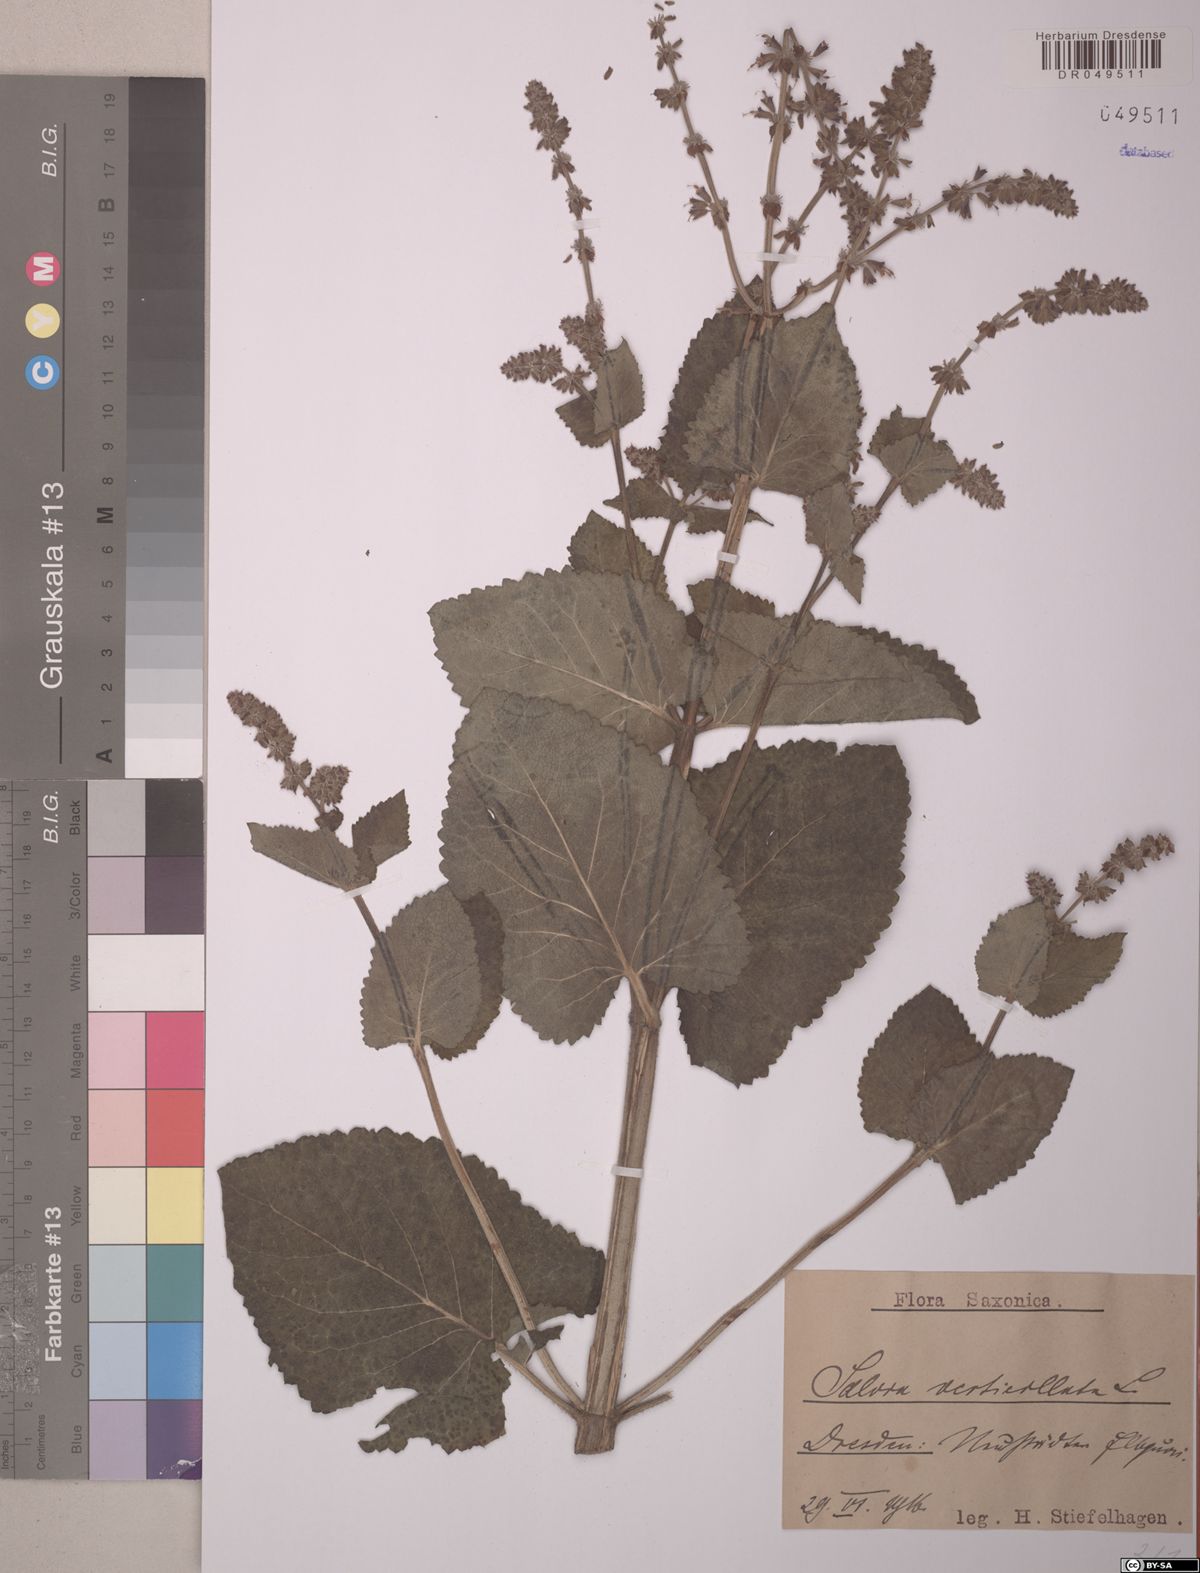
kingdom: Plantae
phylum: Tracheophyta
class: Magnoliopsida
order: Lamiales
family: Lamiaceae
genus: Salvia
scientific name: Salvia verticillata
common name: Whorled clary
